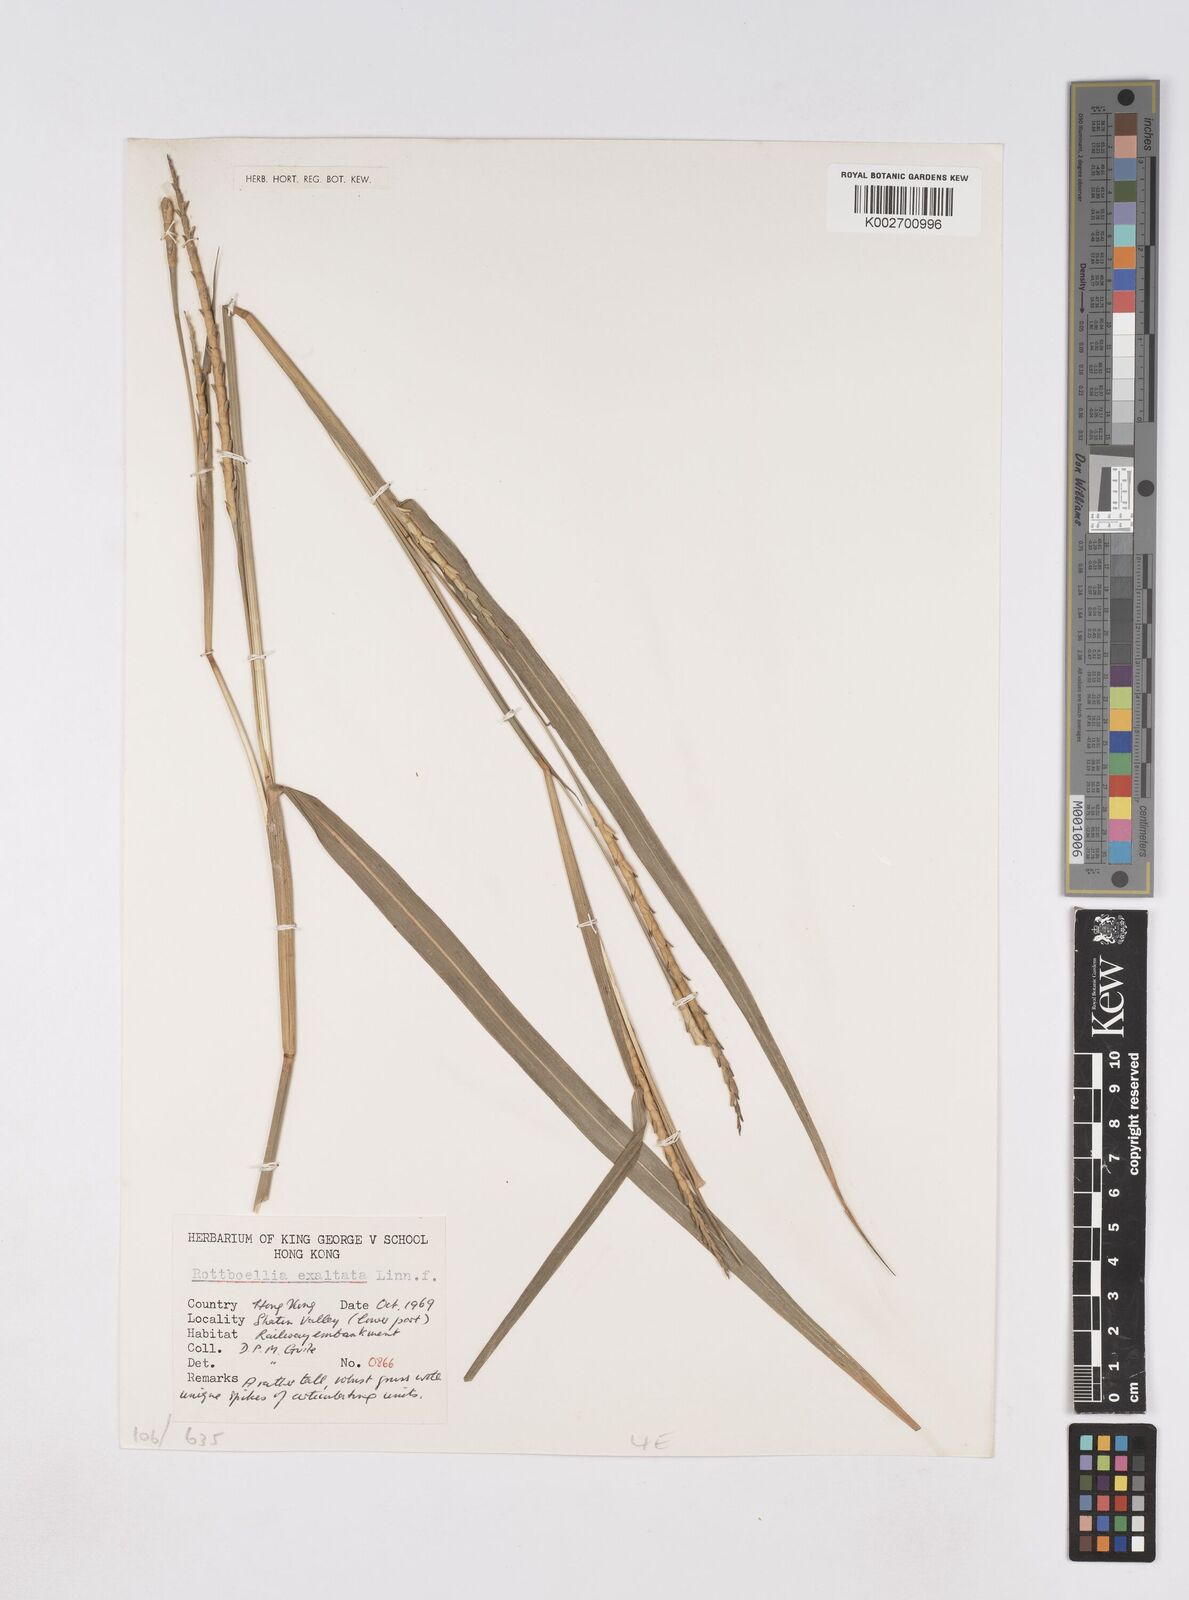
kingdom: Plantae
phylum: Tracheophyta
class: Liliopsida
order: Poales
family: Poaceae
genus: Rottboellia
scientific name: Rottboellia cochinchinensis
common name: Itchgrass
